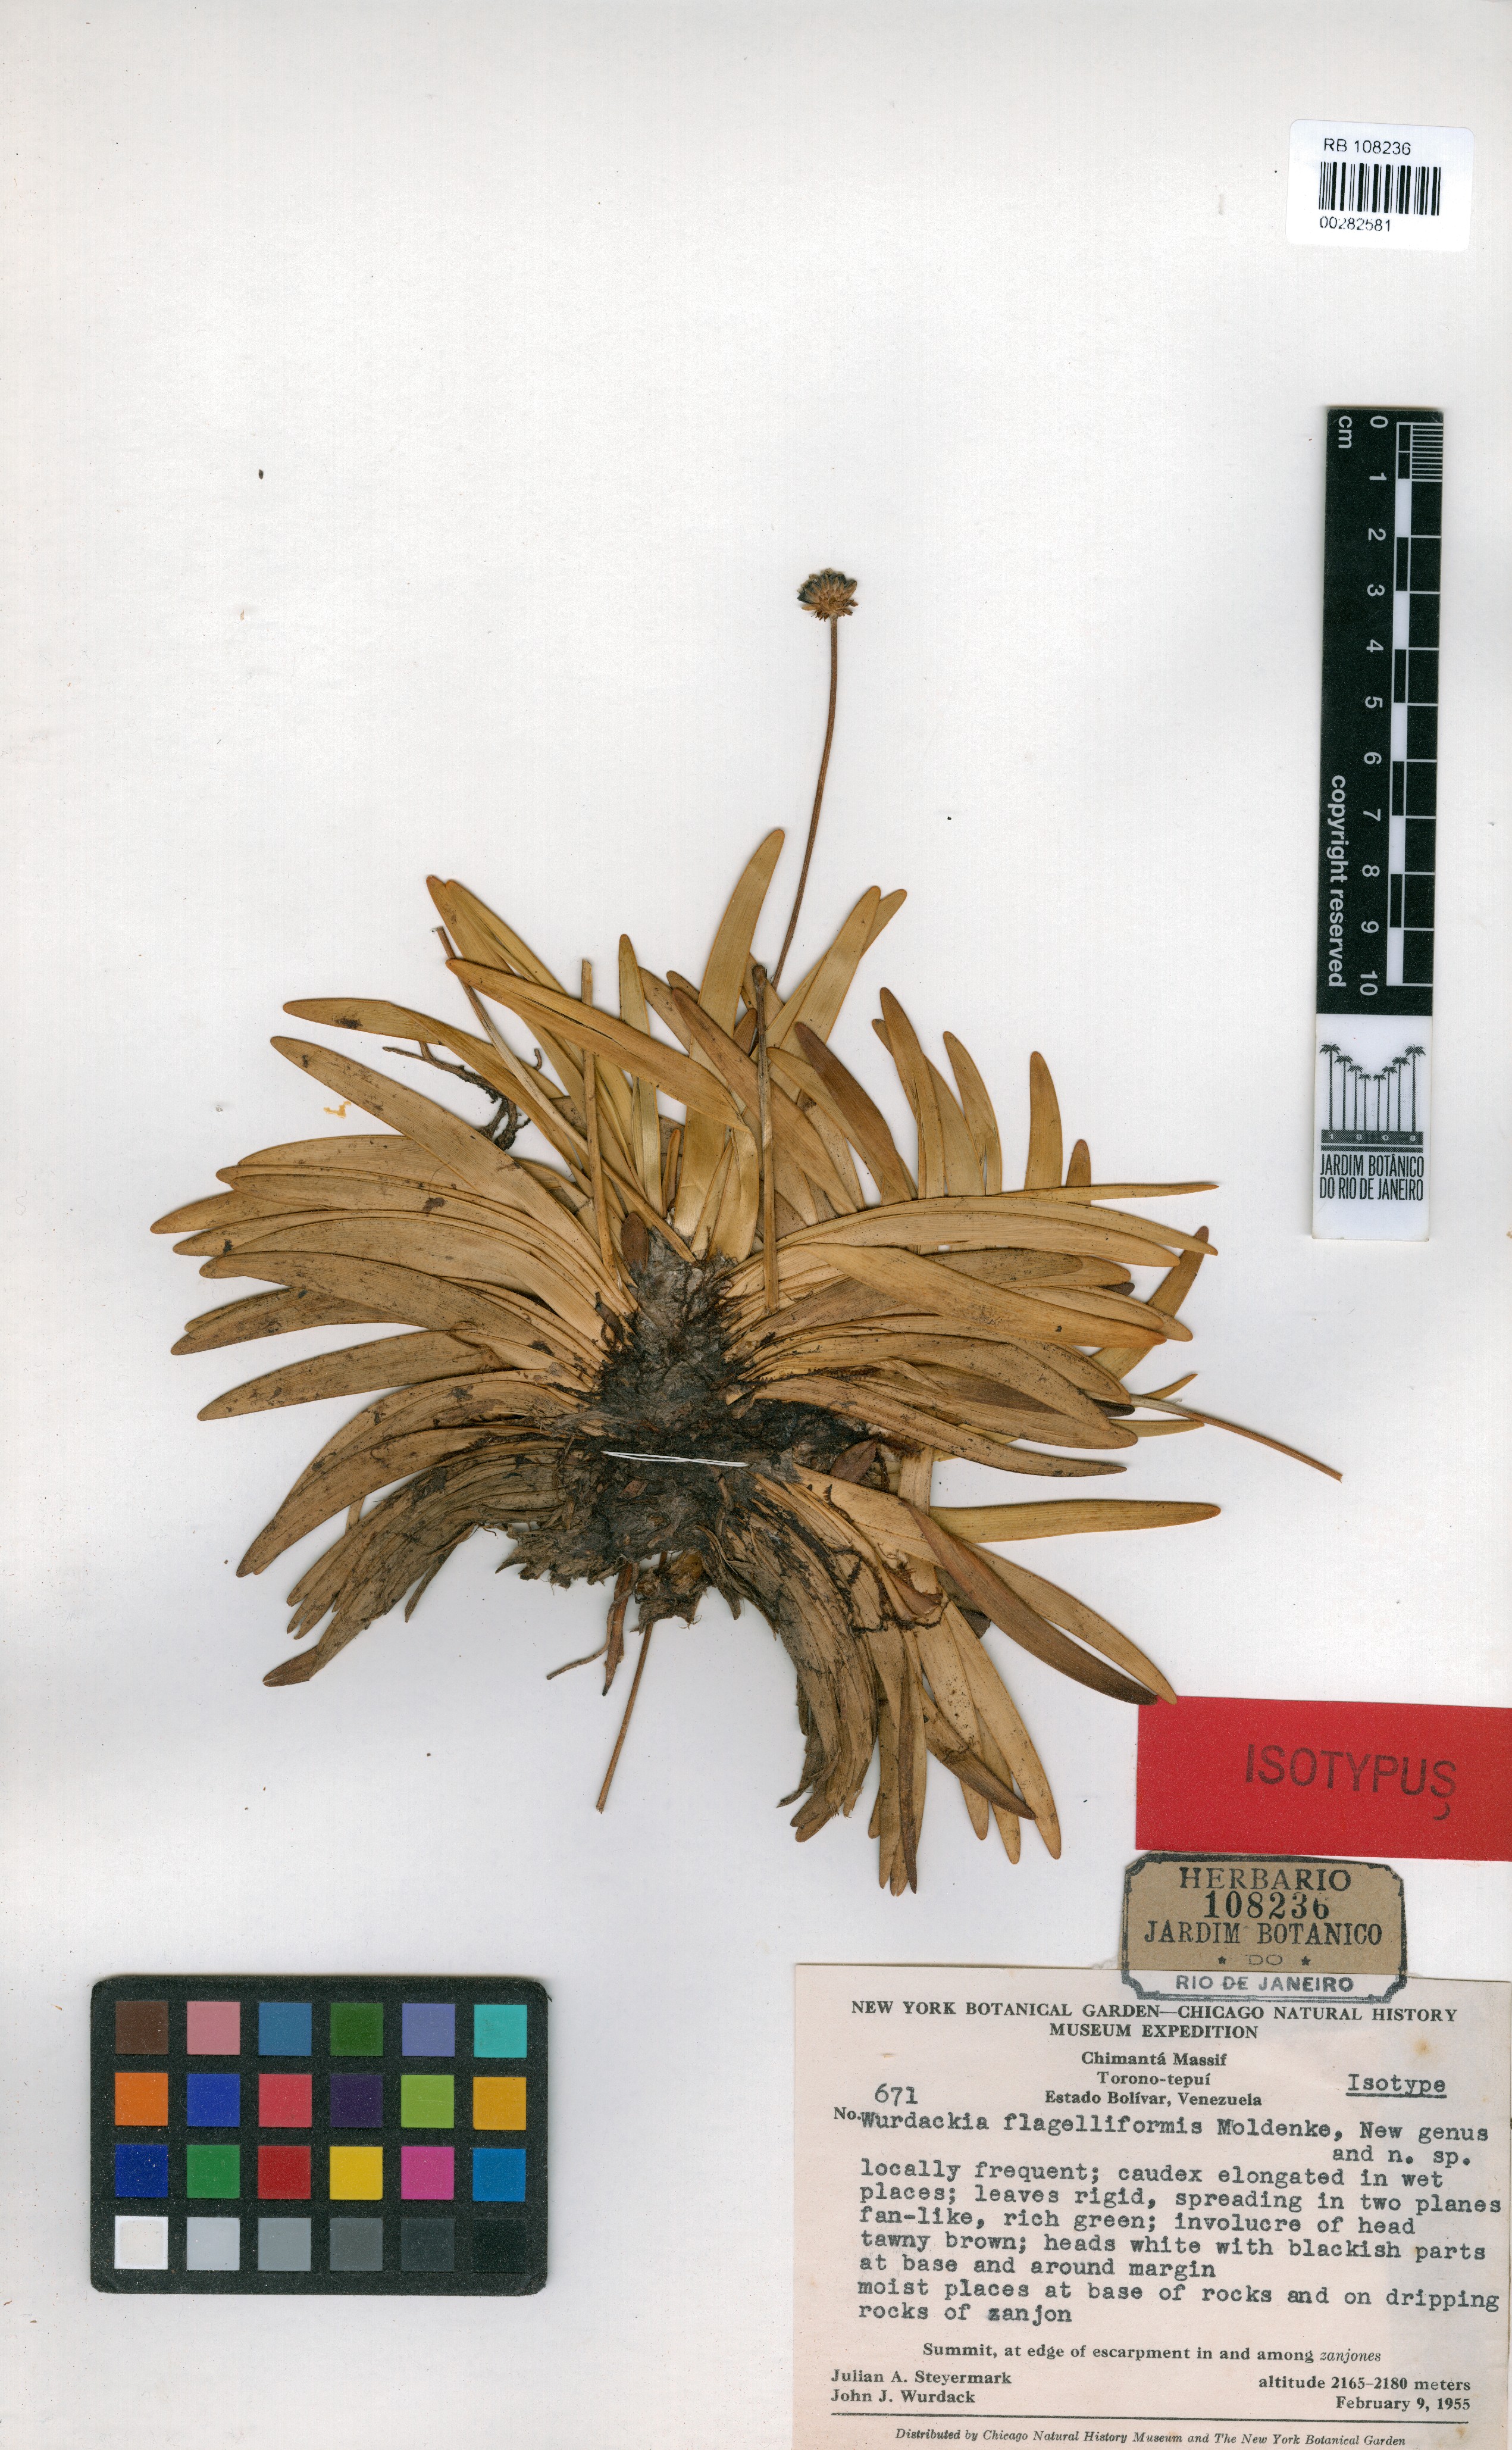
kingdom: Plantae
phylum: Tracheophyta
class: Liliopsida
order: Poales
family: Eriocaulaceae
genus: Rondonanthus
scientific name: Rondonanthus flabelliformis
